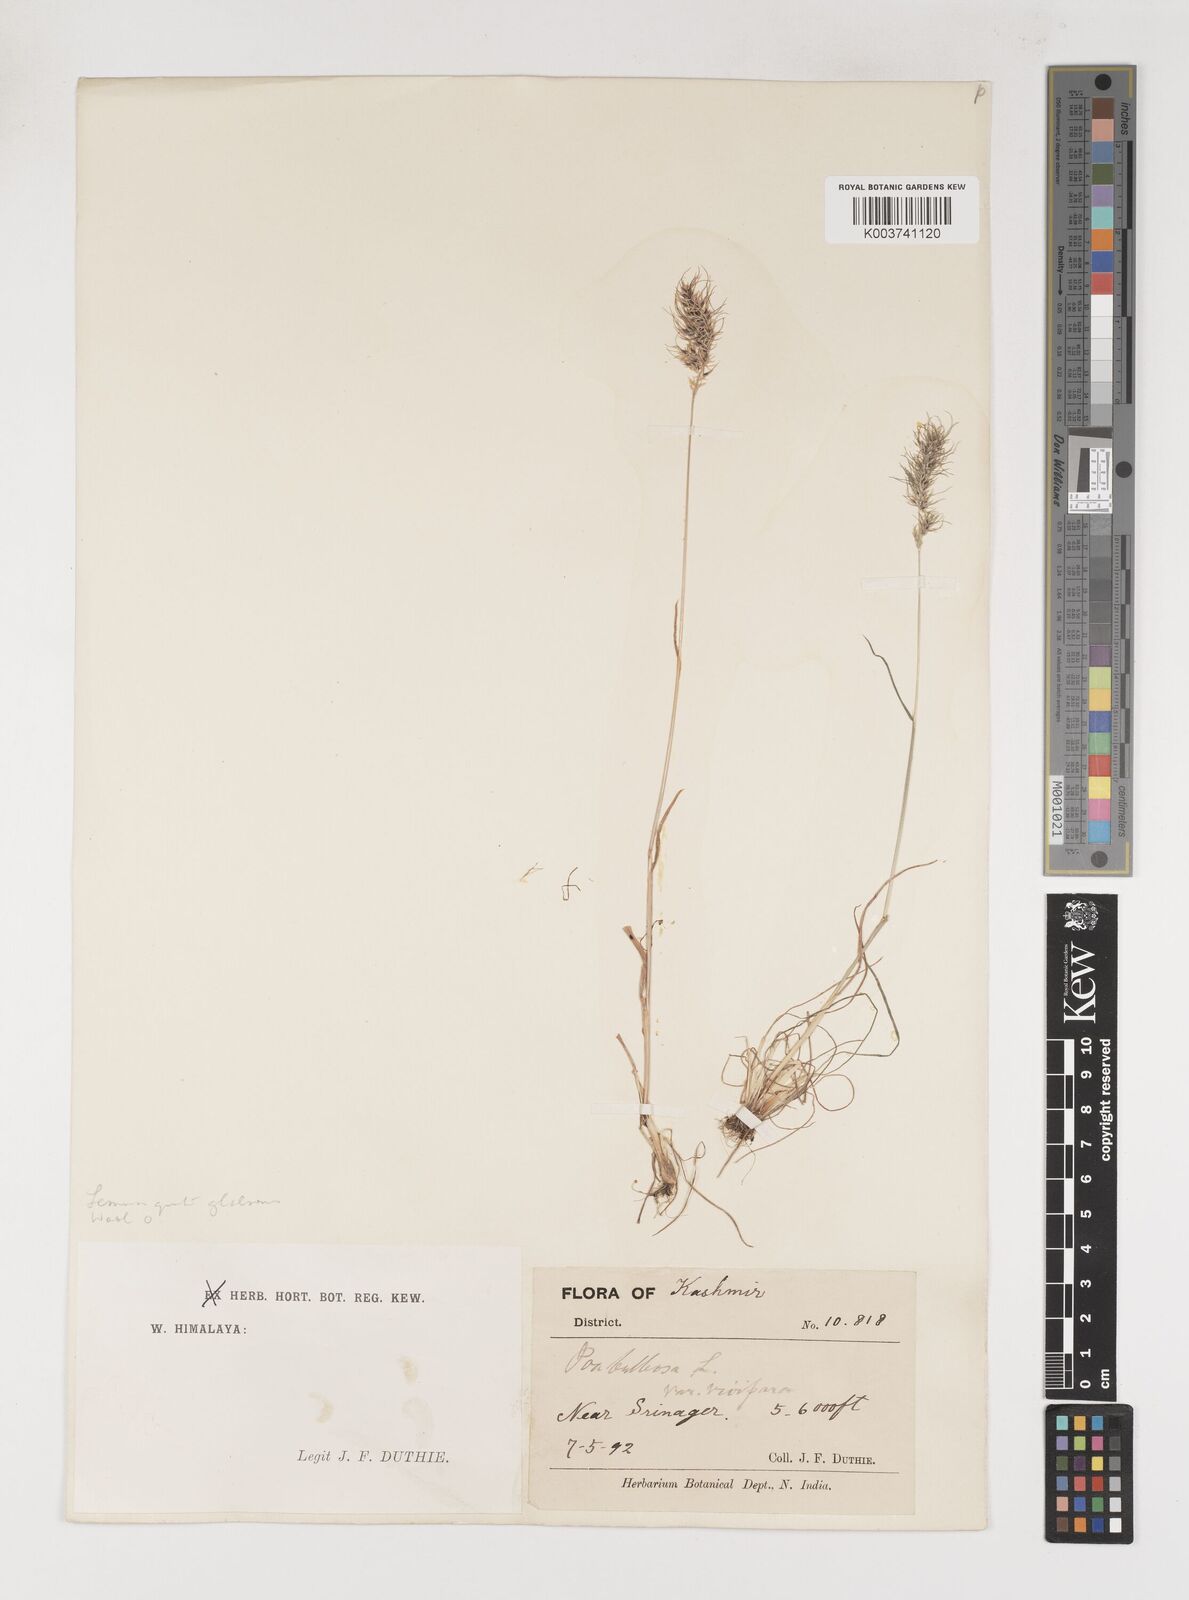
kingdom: Plantae
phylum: Tracheophyta
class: Liliopsida
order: Poales
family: Poaceae
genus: Poa
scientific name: Poa bulbosa
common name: Bulbous bluegrass
